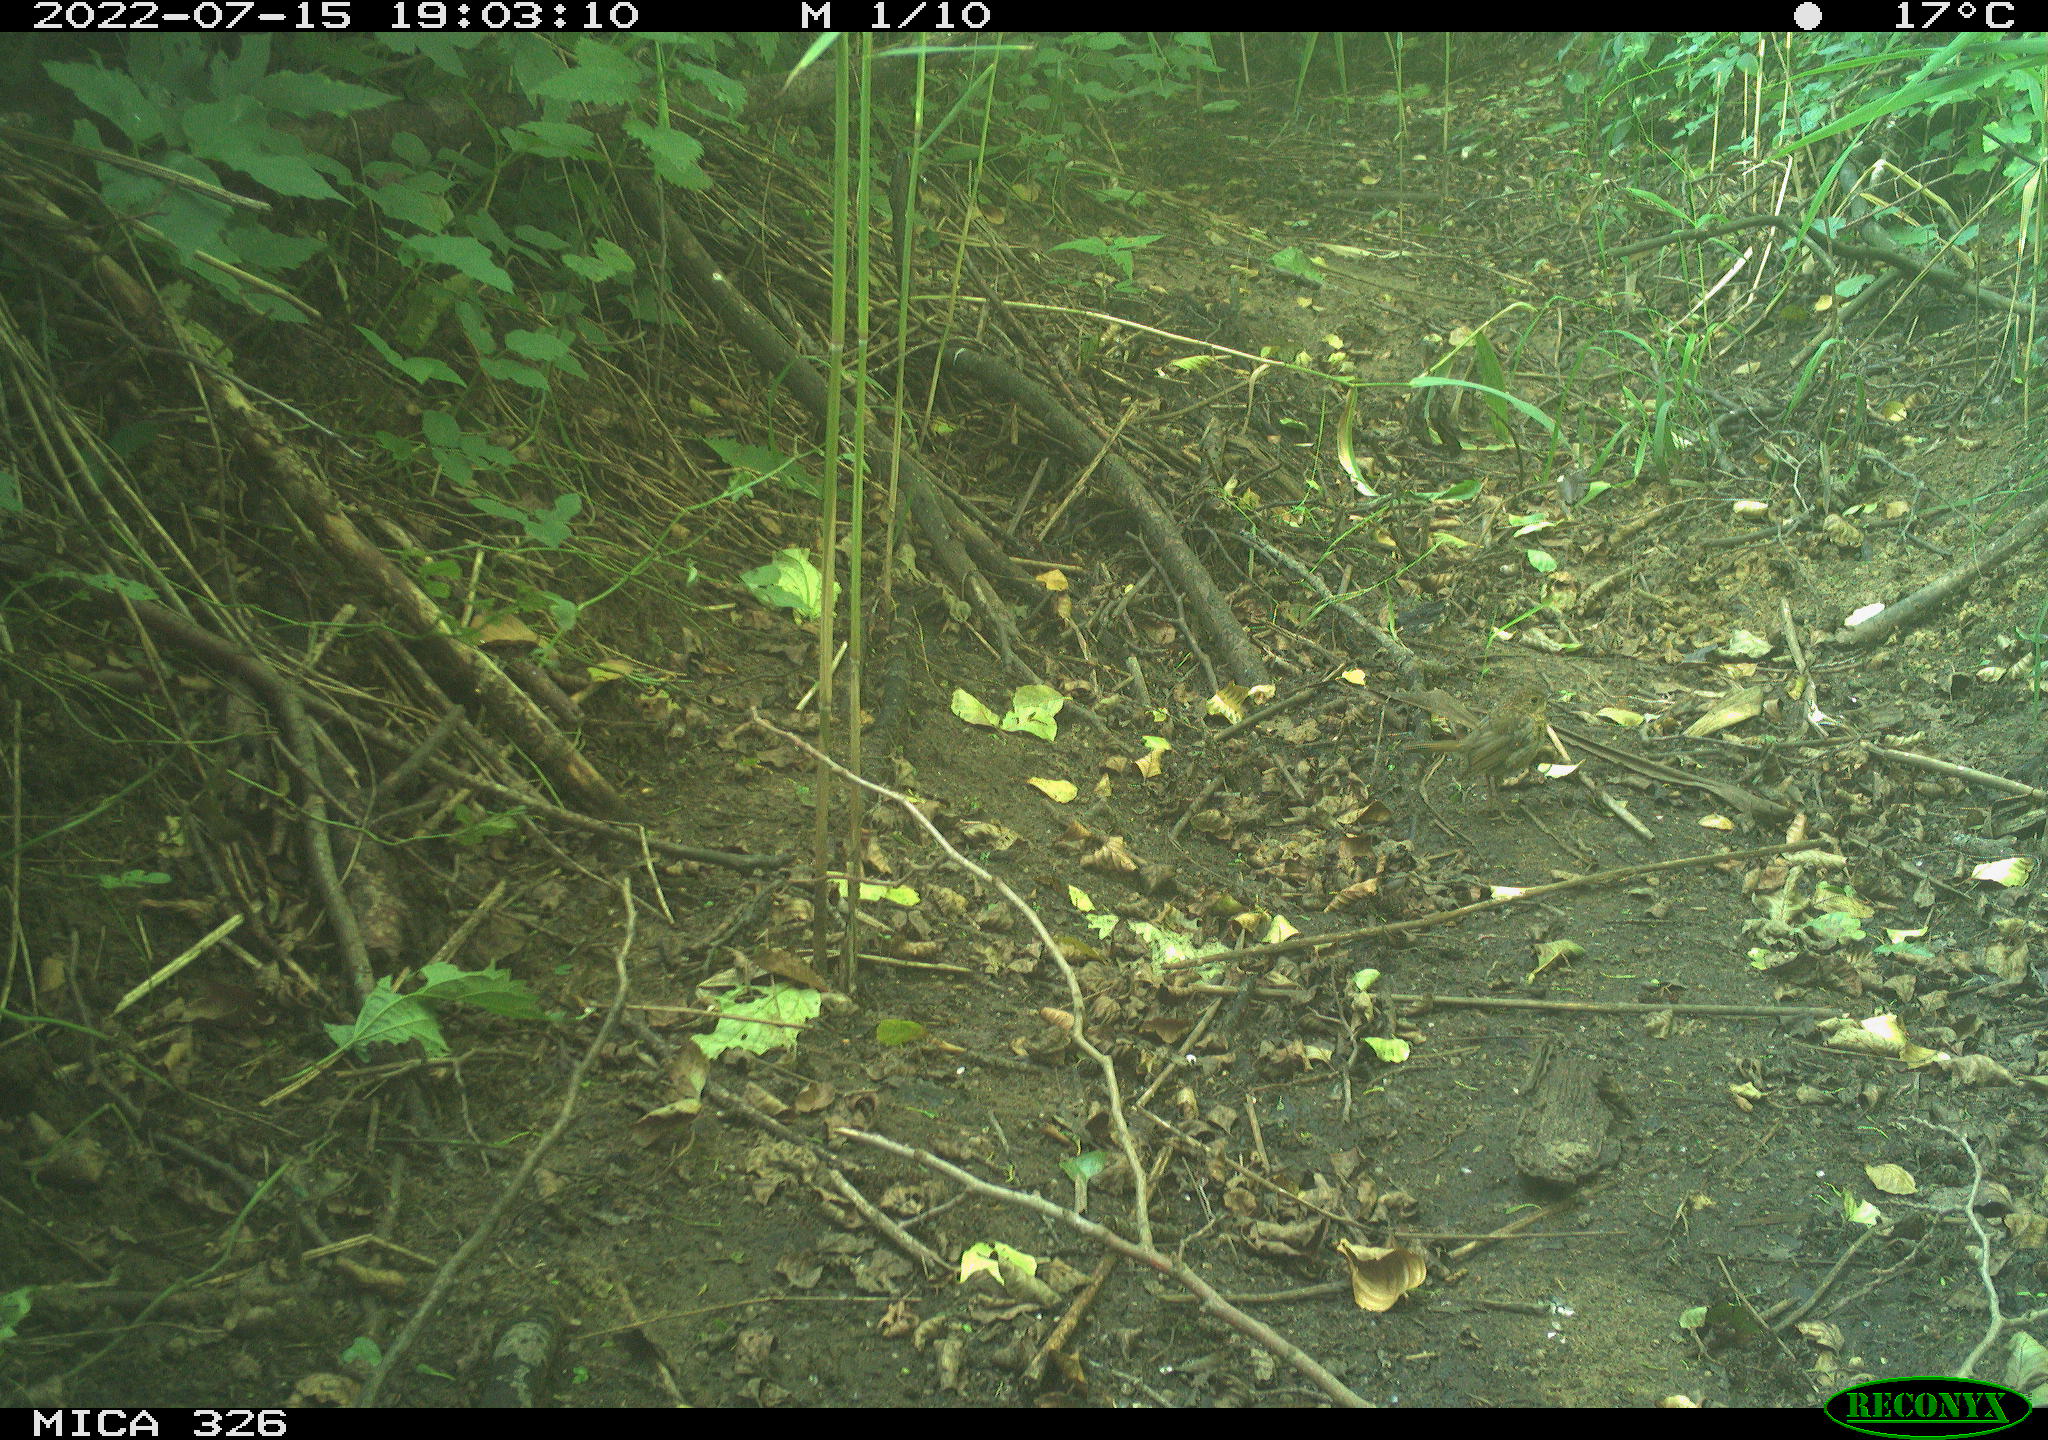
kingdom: Animalia
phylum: Chordata
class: Aves
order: Passeriformes
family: Troglodytidae
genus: Troglodytes
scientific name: Troglodytes troglodytes
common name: Eurasian wren
